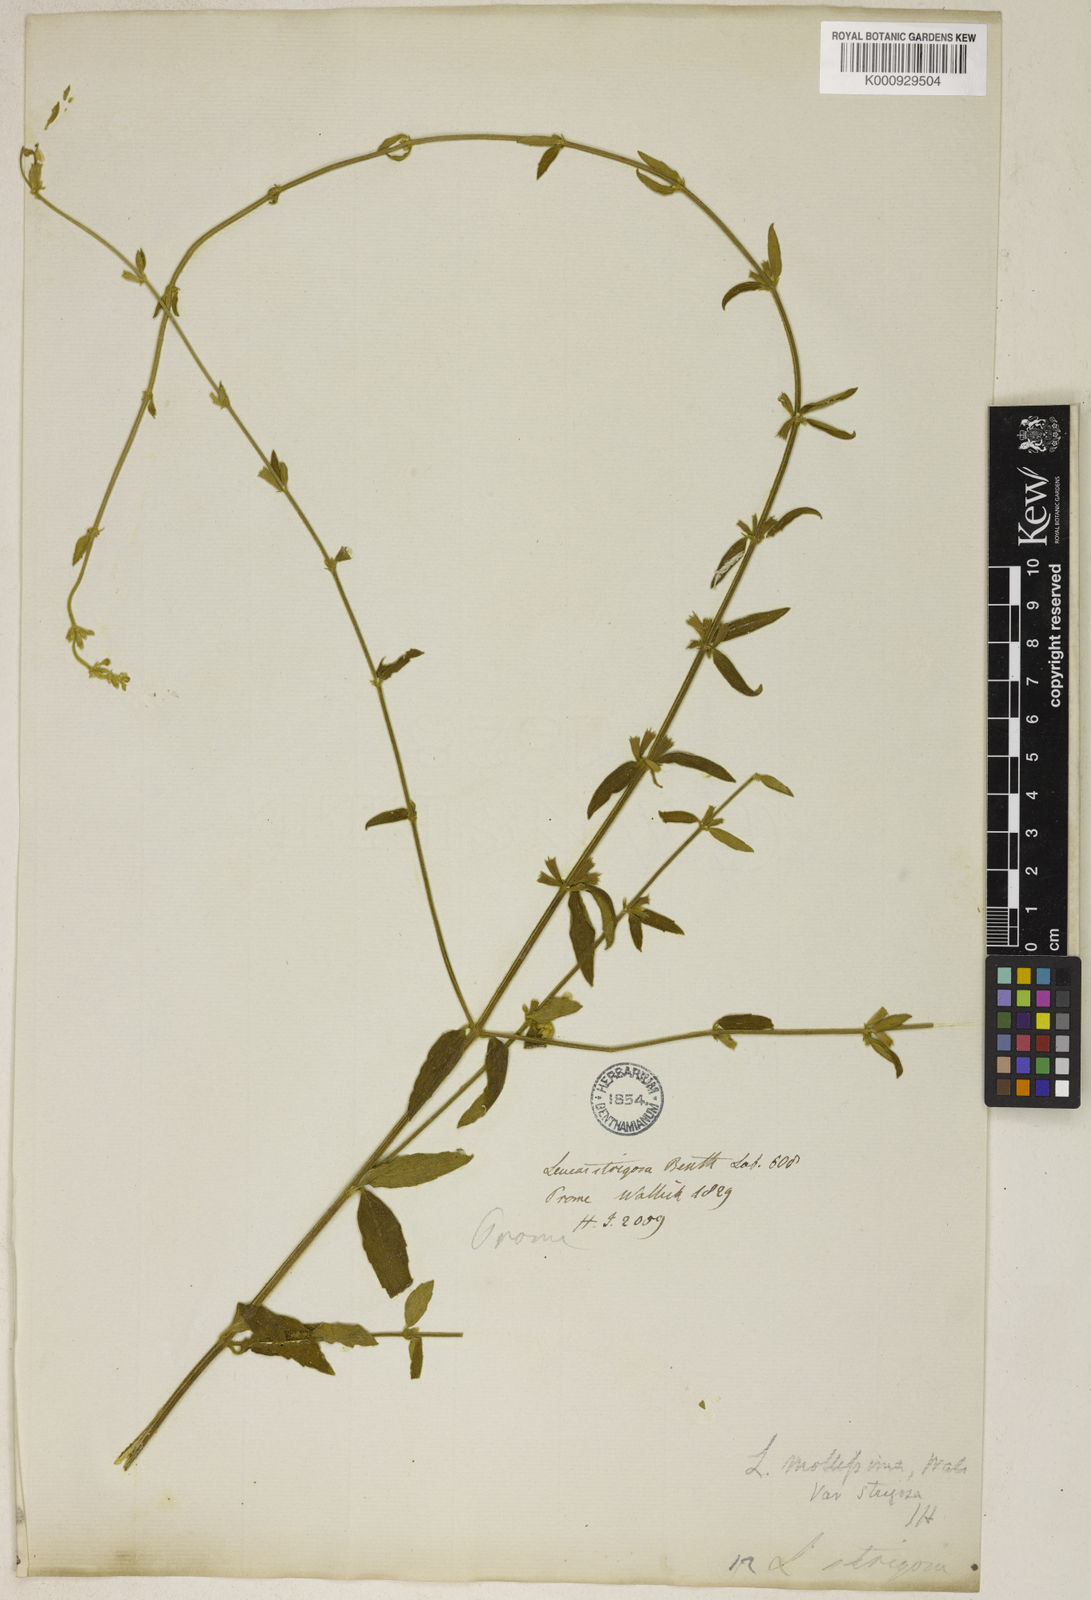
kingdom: Plantae
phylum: Tracheophyta
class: Magnoliopsida
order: Lamiales
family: Lamiaceae
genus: Leucas
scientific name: Leucas
